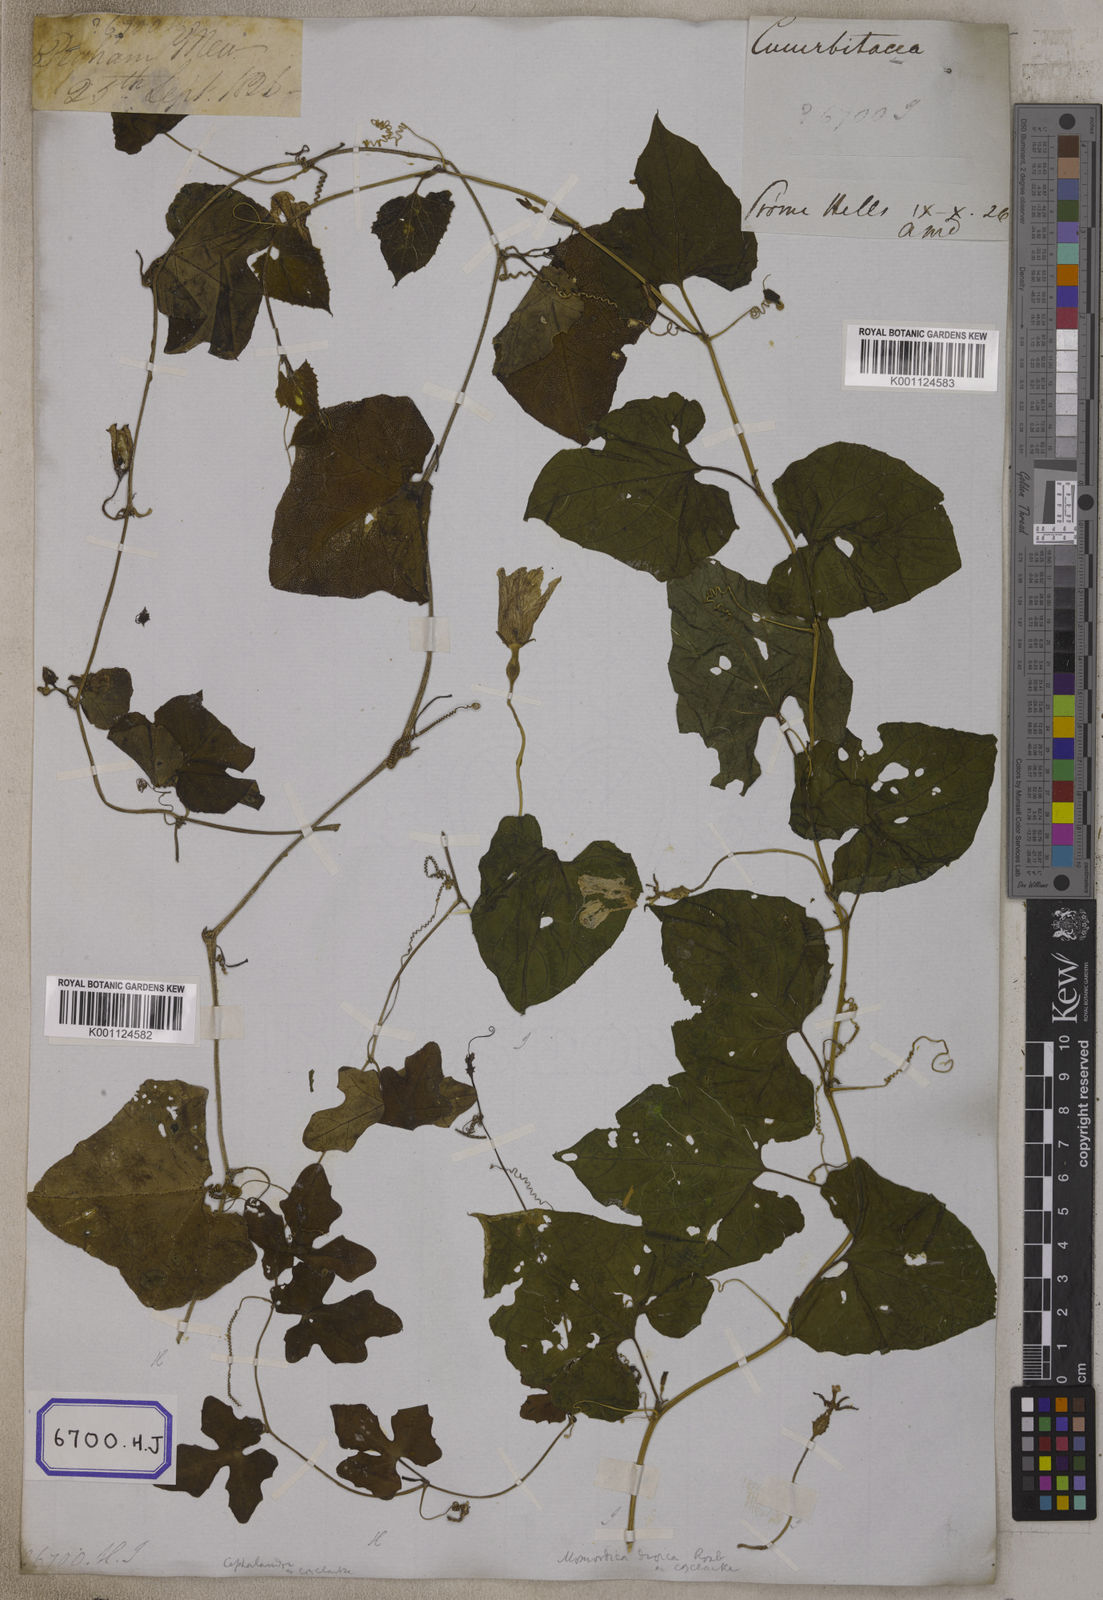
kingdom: Plantae
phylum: Tracheophyta
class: Magnoliopsida
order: Cucurbitales
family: Cucurbitaceae
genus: Bryonia
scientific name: Bryonia
